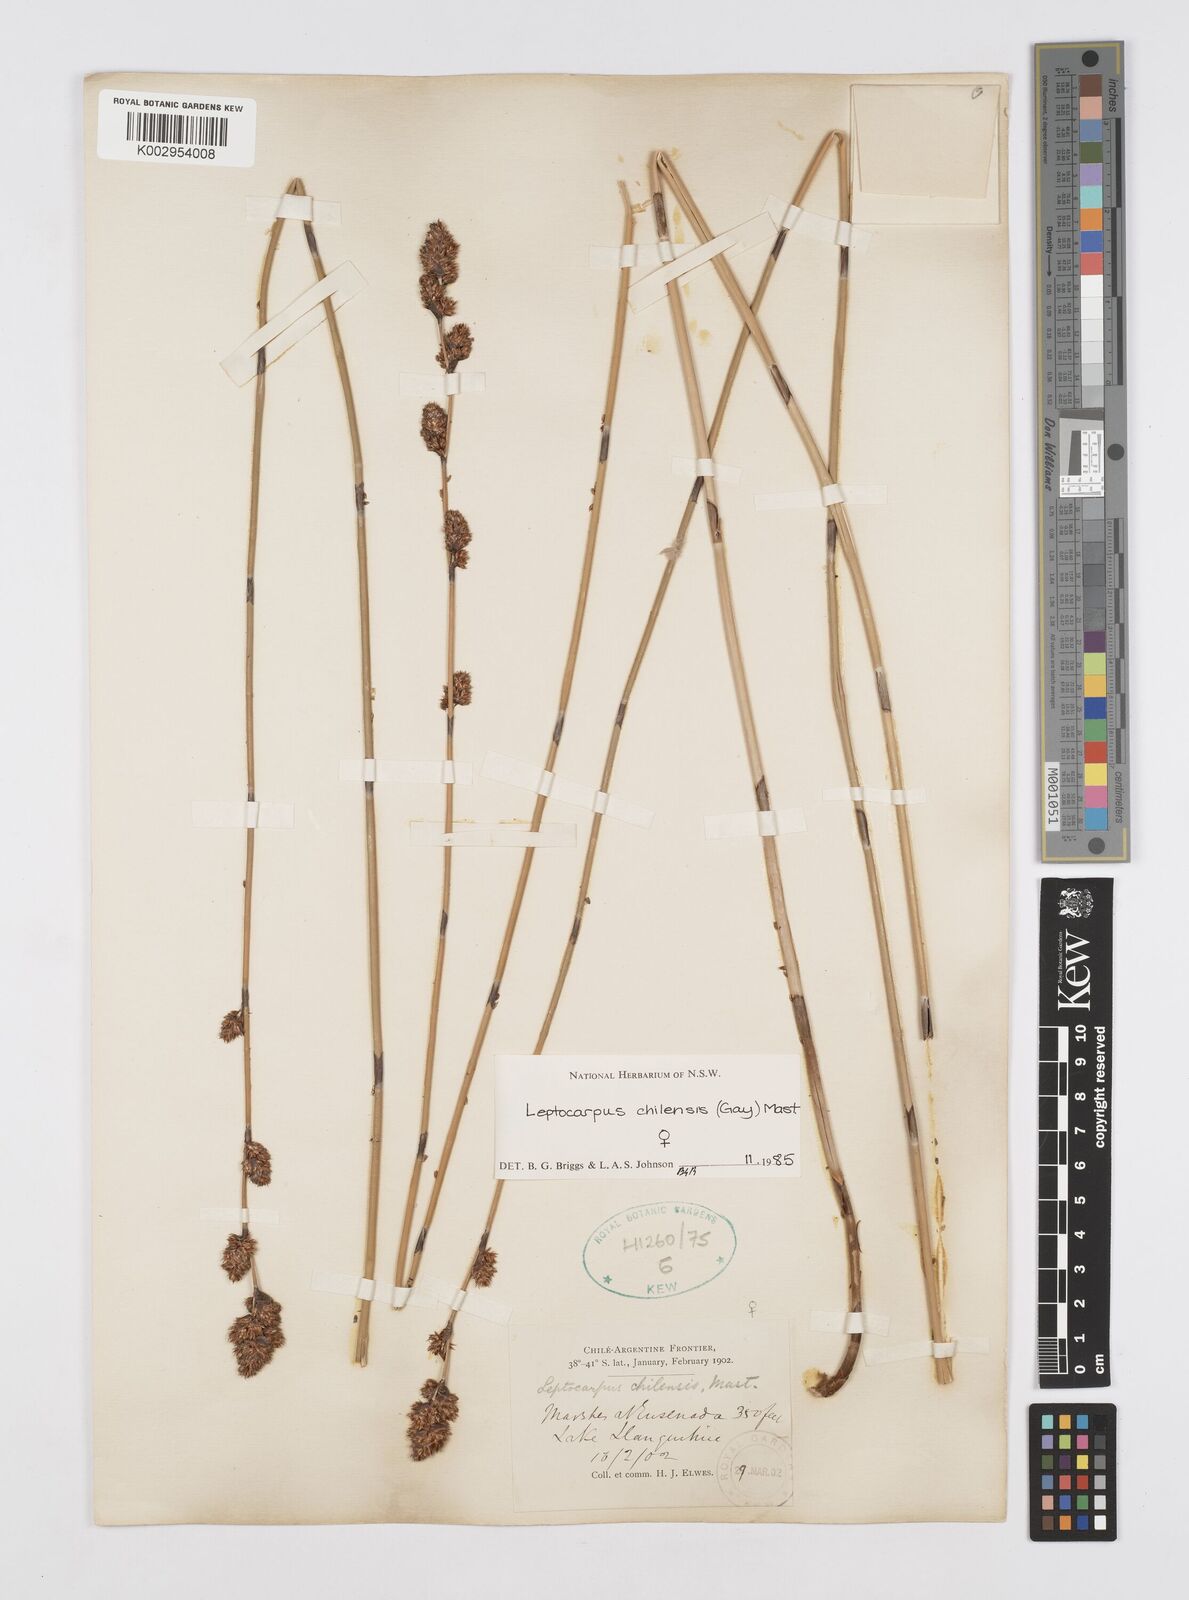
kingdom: Plantae
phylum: Tracheophyta
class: Liliopsida
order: Poales
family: Restionaceae
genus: Apodasmia
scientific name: Apodasmia chilensis
